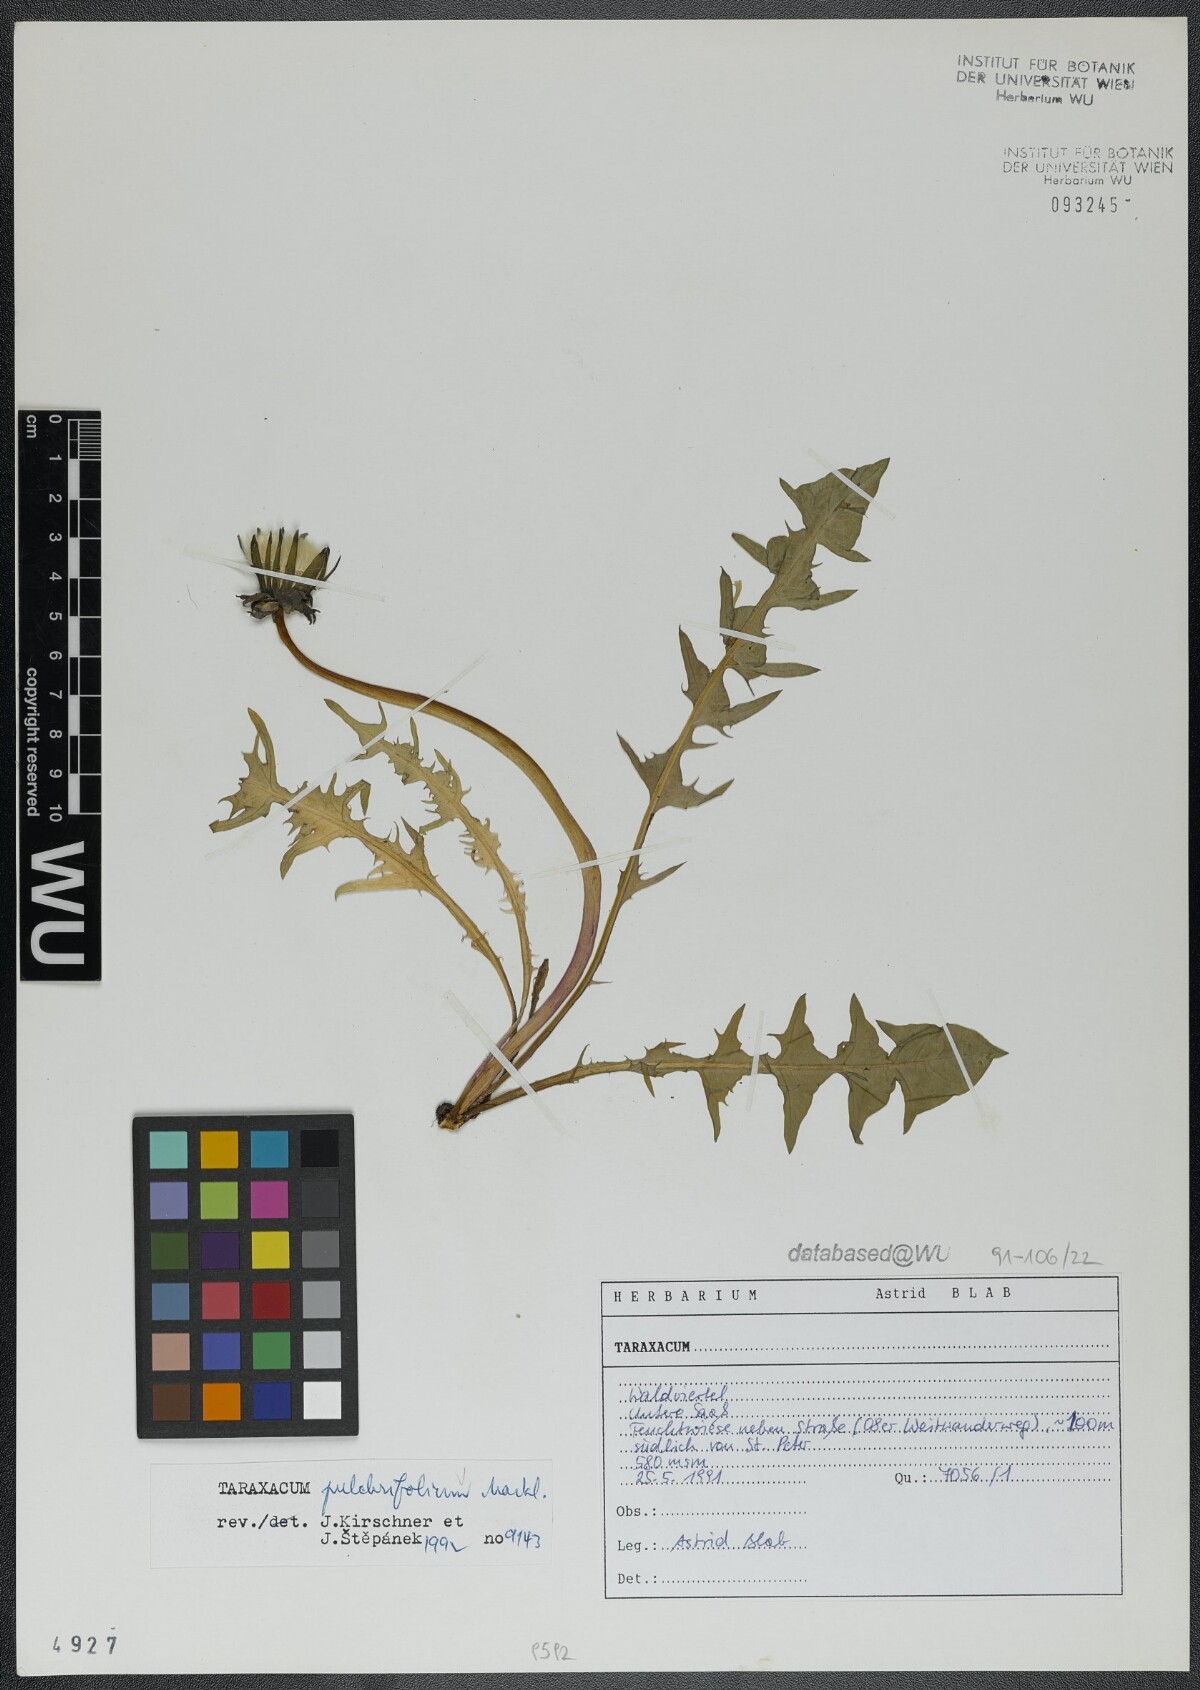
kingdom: Plantae
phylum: Tracheophyta
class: Magnoliopsida
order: Asterales
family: Asteraceae
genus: Taraxacum
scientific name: Taraxacum pulchrifolium
